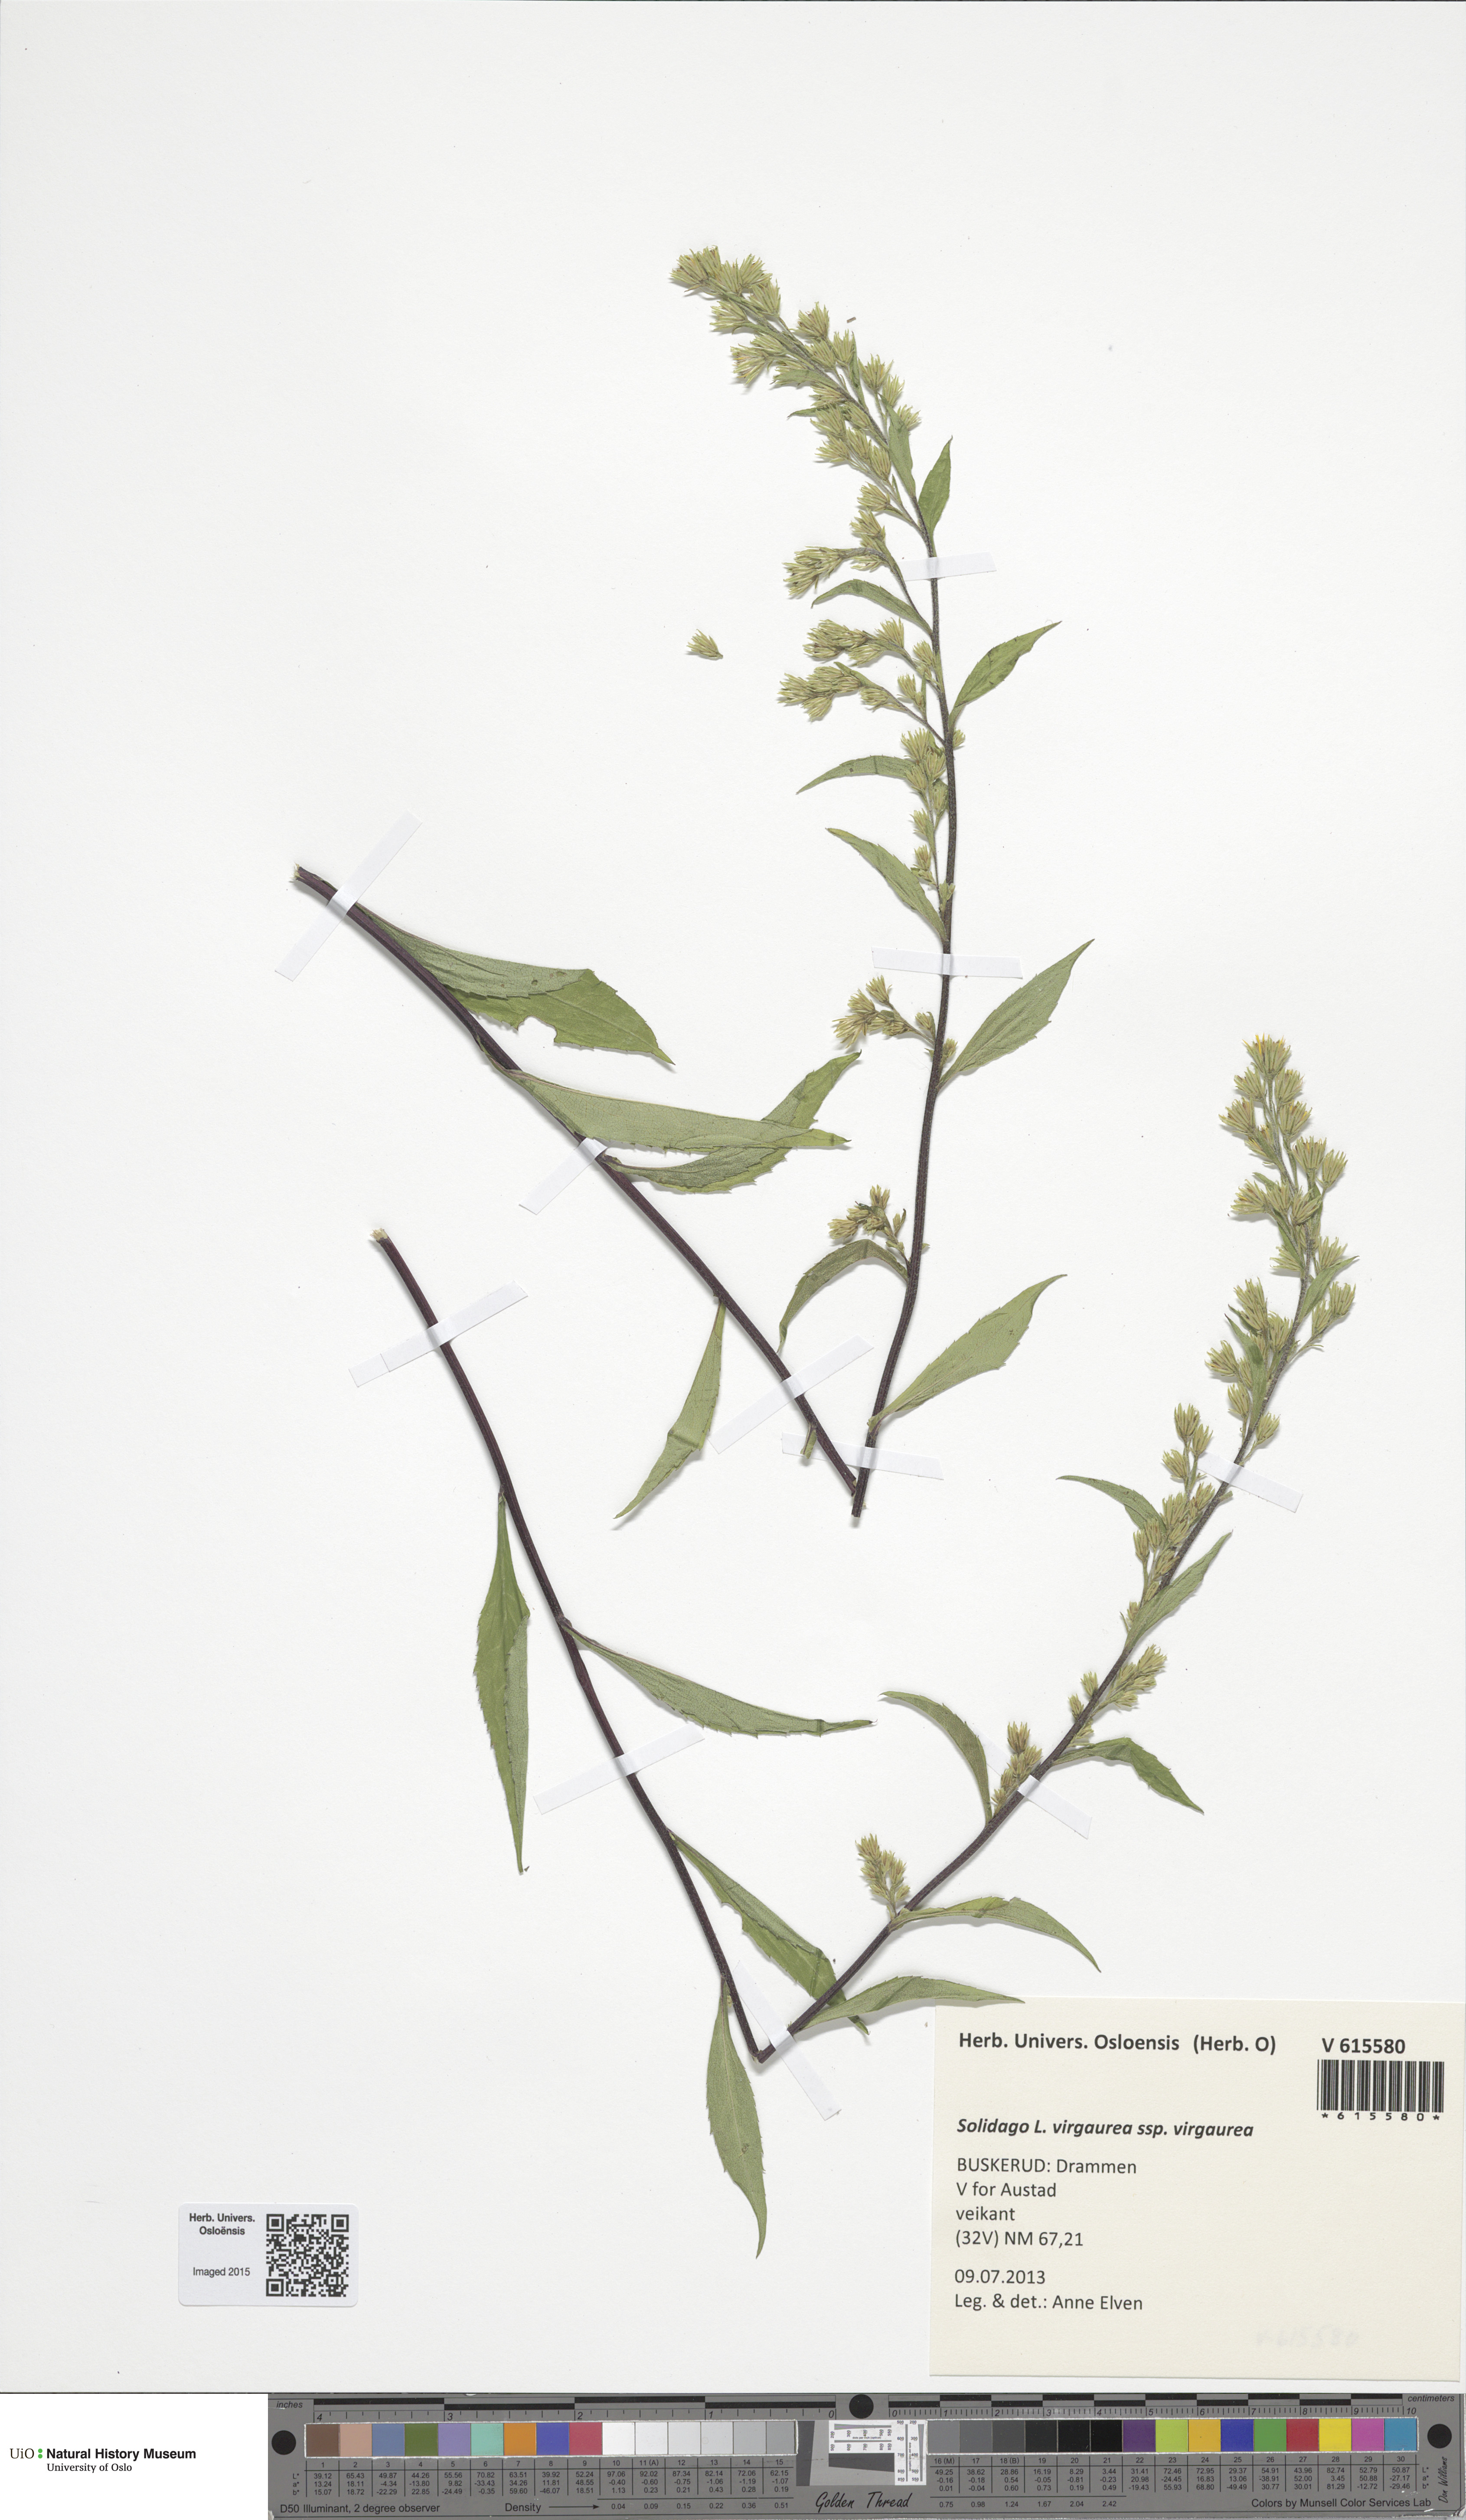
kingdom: Plantae
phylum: Tracheophyta
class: Magnoliopsida
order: Asterales
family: Asteraceae
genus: Solidago
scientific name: Solidago virgaurea
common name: Goldenrod
